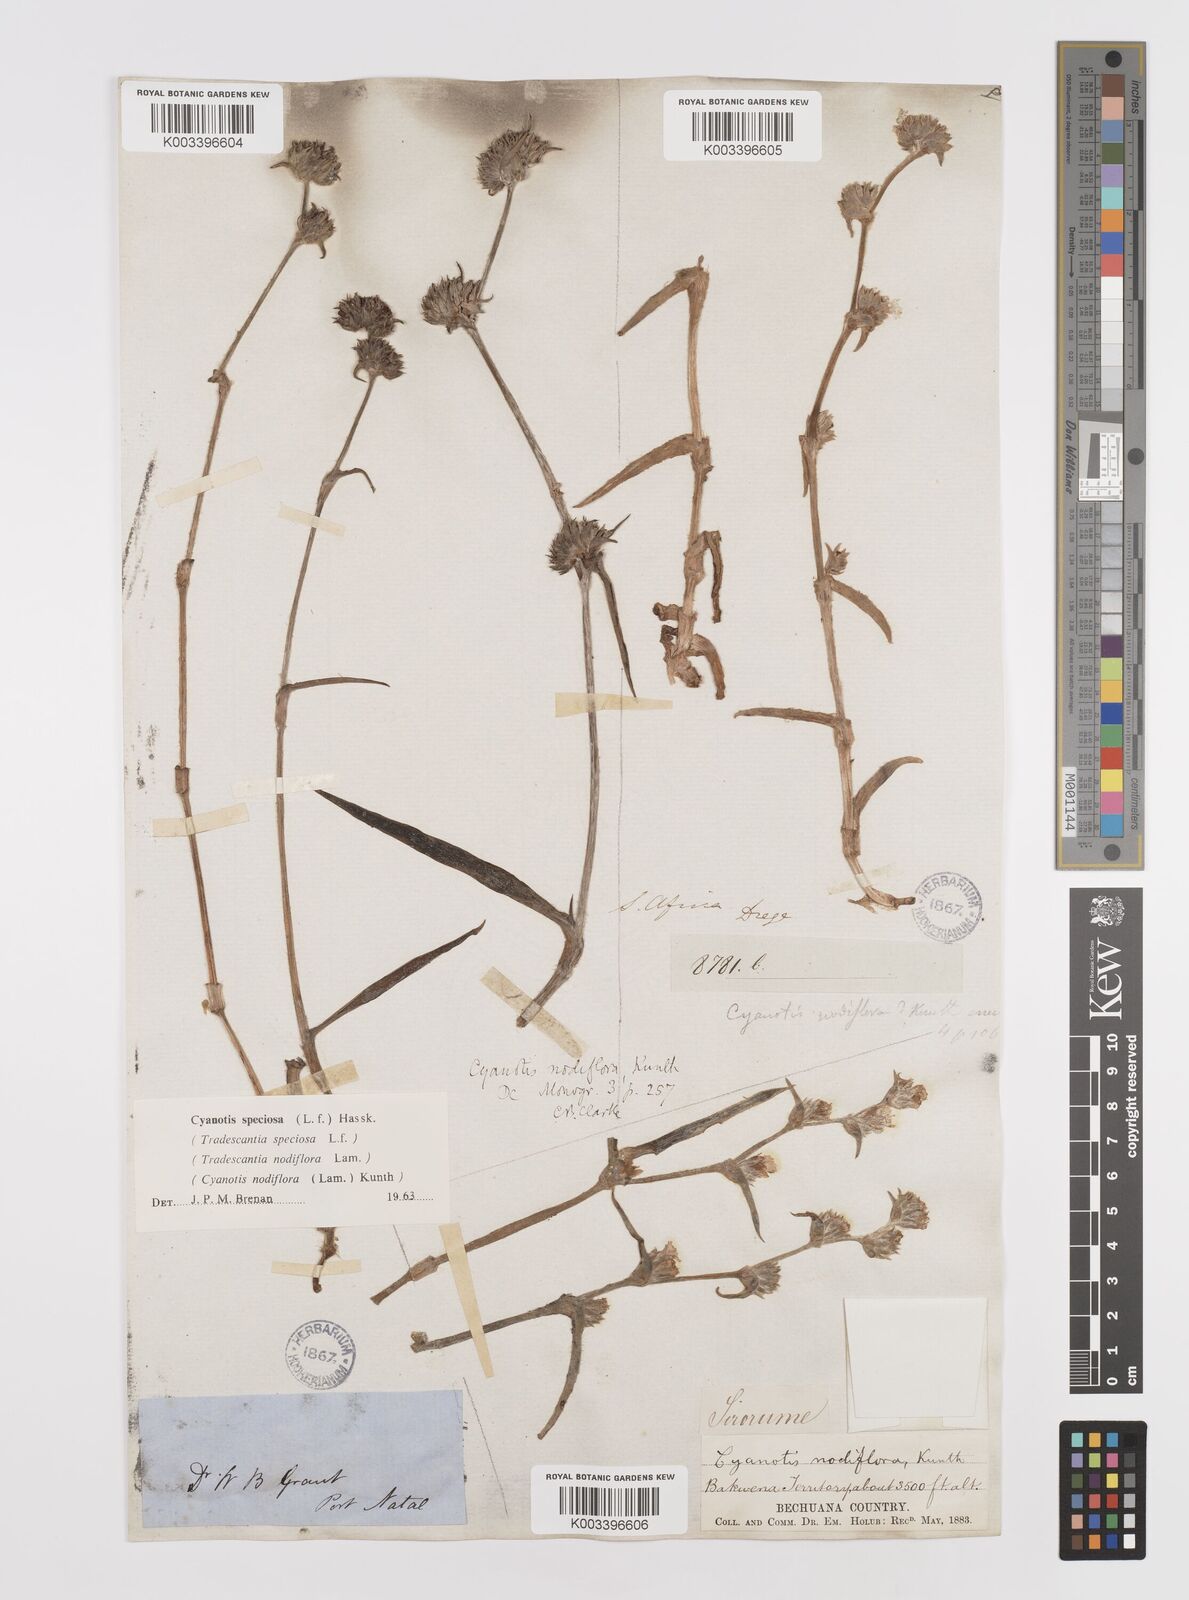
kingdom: Plantae
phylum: Tracheophyta
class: Liliopsida
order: Commelinales
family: Commelinaceae
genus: Cyanotis
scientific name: Cyanotis speciosa
